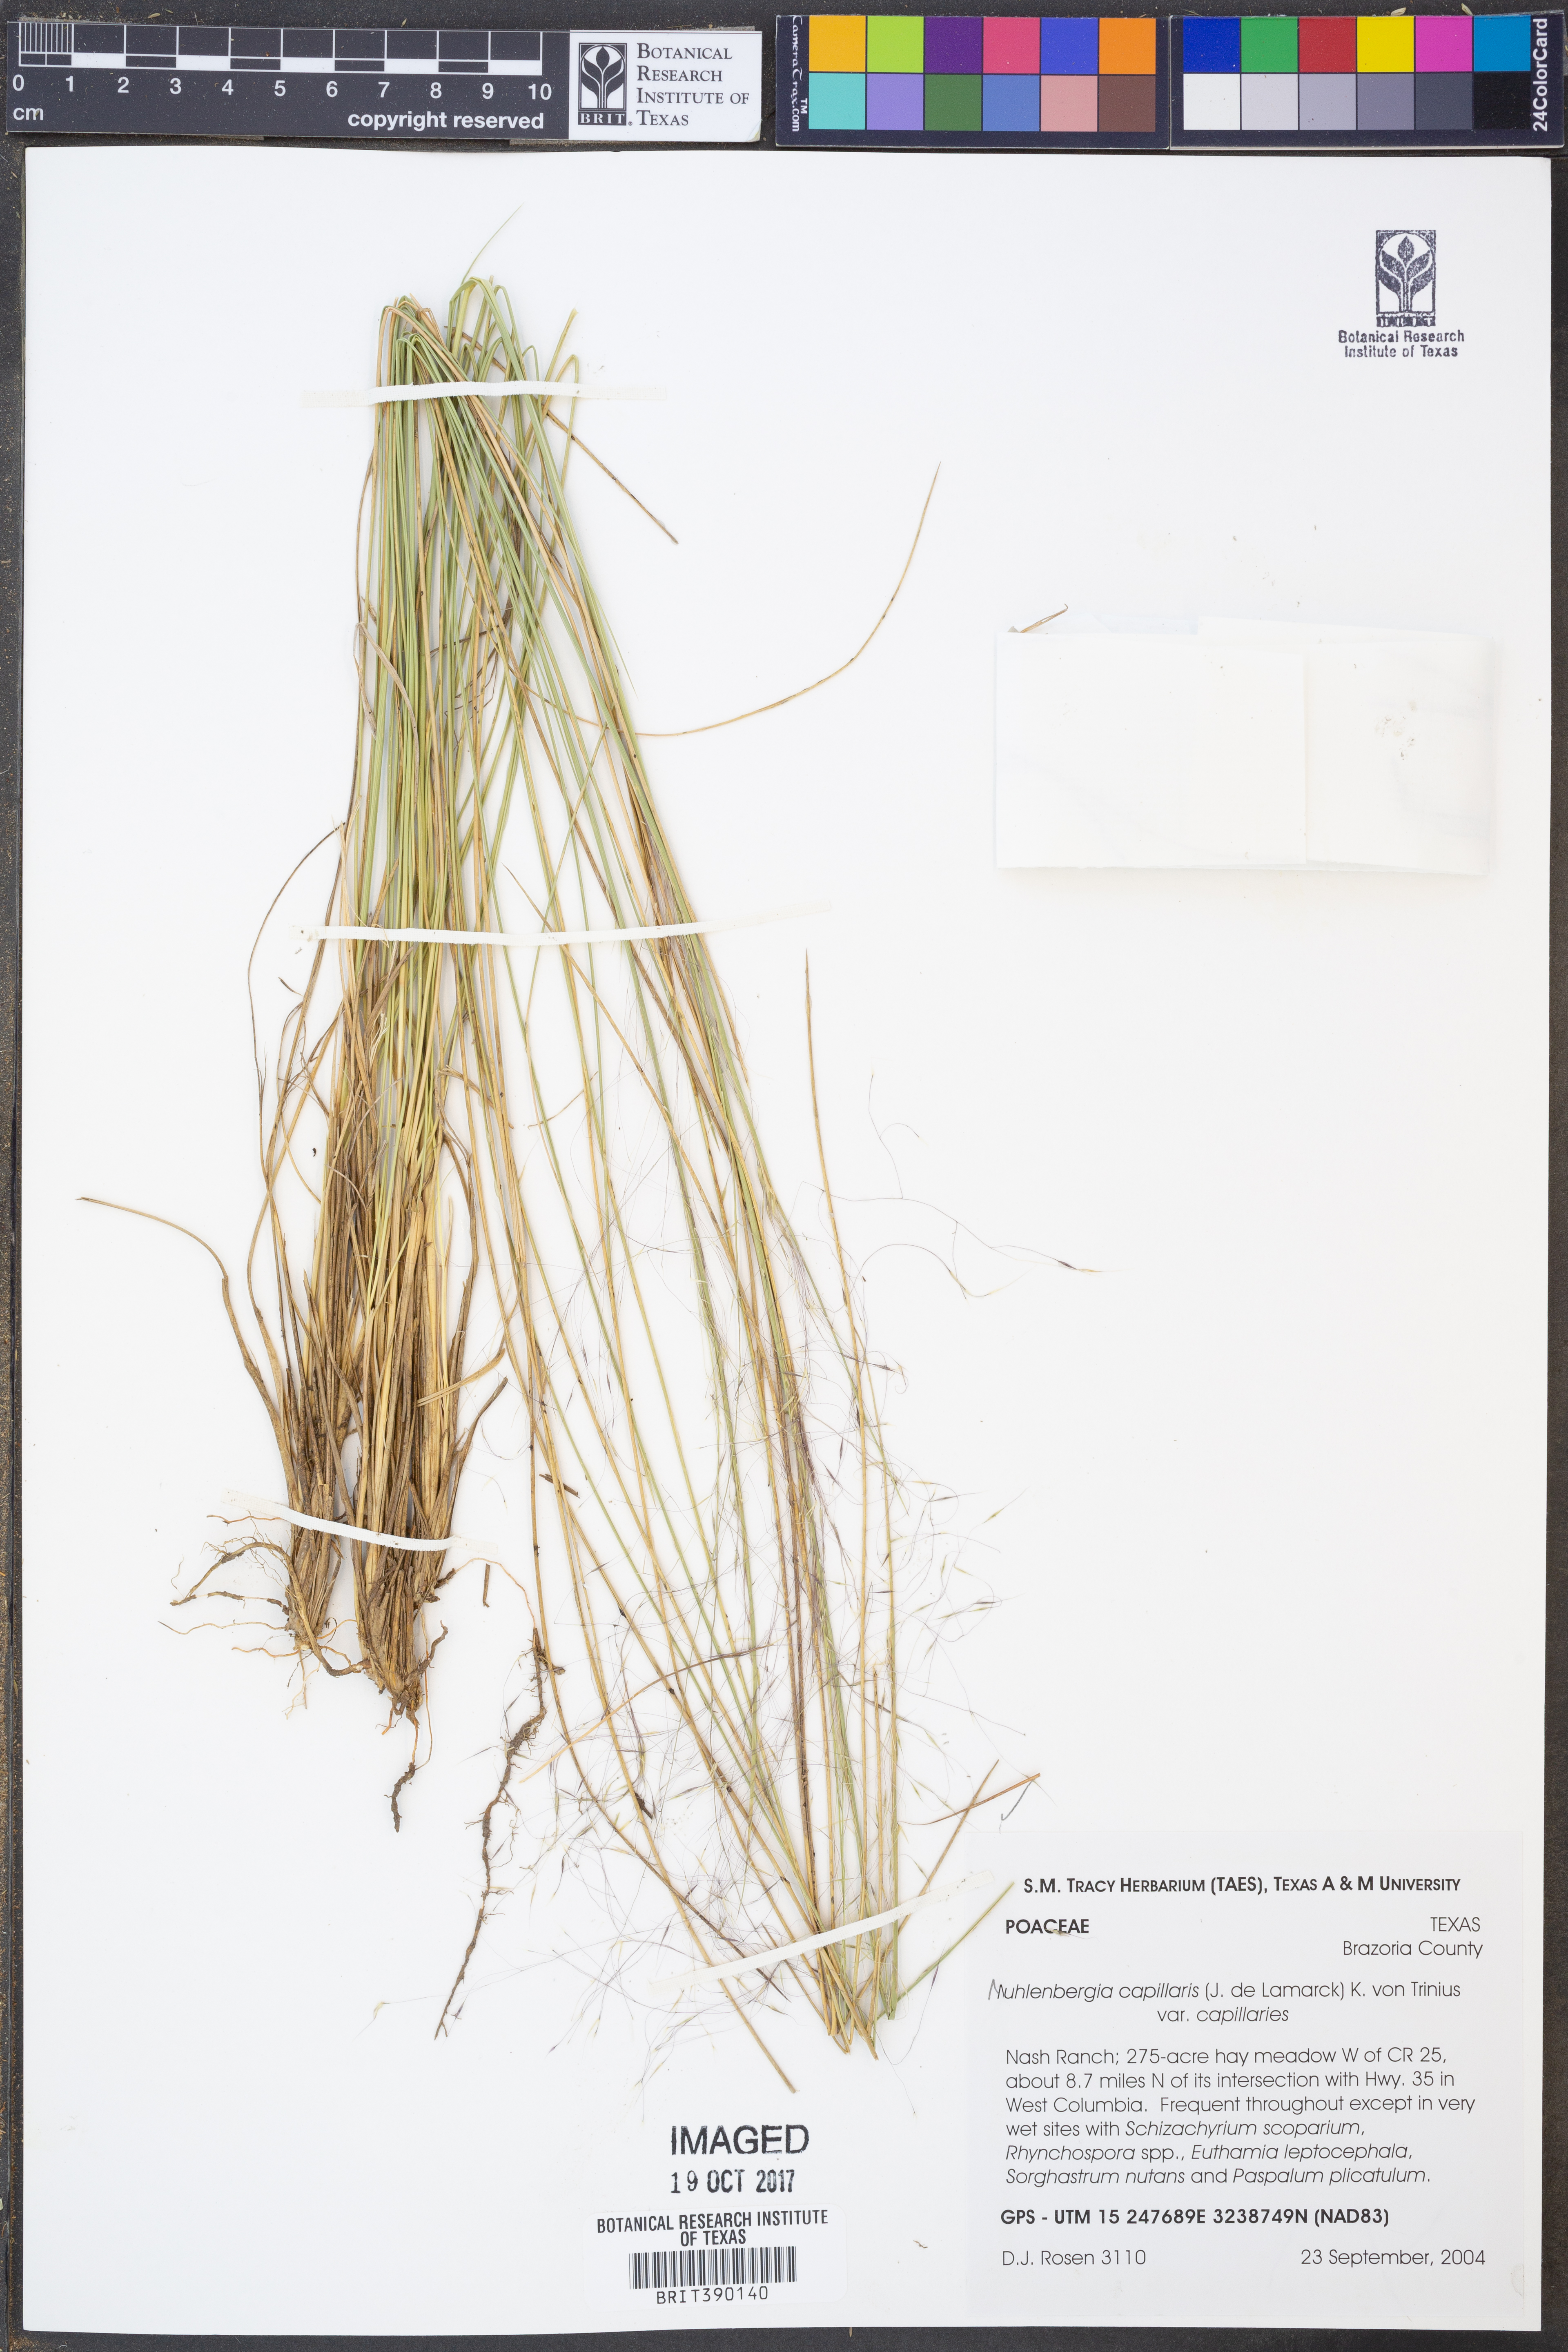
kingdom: Plantae
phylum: Tracheophyta
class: Liliopsida
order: Poales
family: Poaceae
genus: Muhlenbergia
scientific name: Muhlenbergia capillaris
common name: Purple grass
